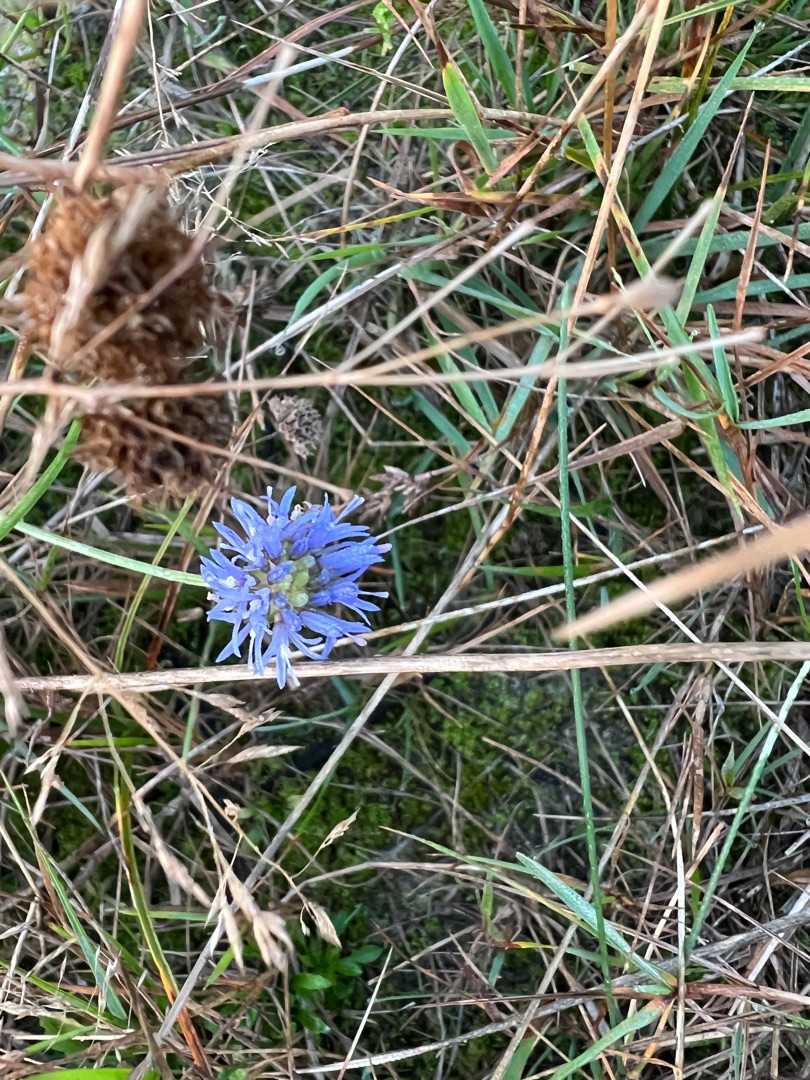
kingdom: Plantae
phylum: Tracheophyta
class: Magnoliopsida
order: Asterales
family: Campanulaceae
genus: Jasione
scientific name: Jasione montana
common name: Blåmunke
